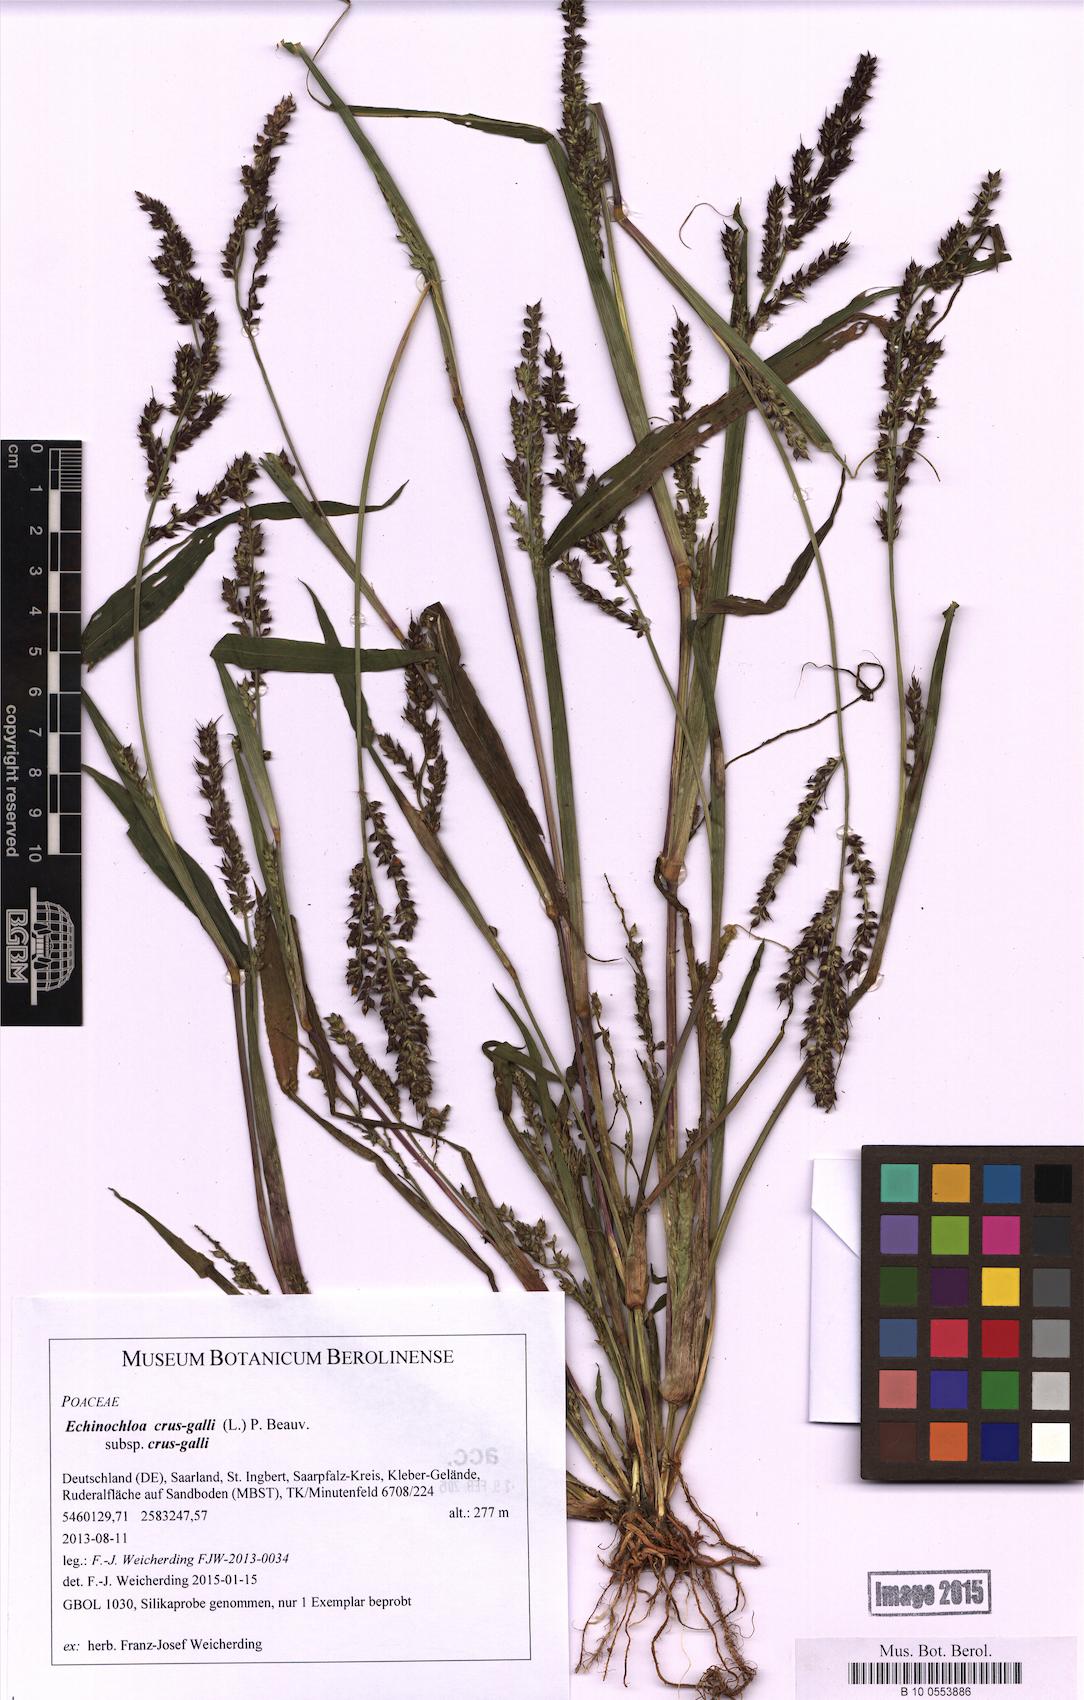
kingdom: Plantae
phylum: Tracheophyta
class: Liliopsida
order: Poales
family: Poaceae
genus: Echinochloa
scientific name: Echinochloa crus-galli
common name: Cockspur
